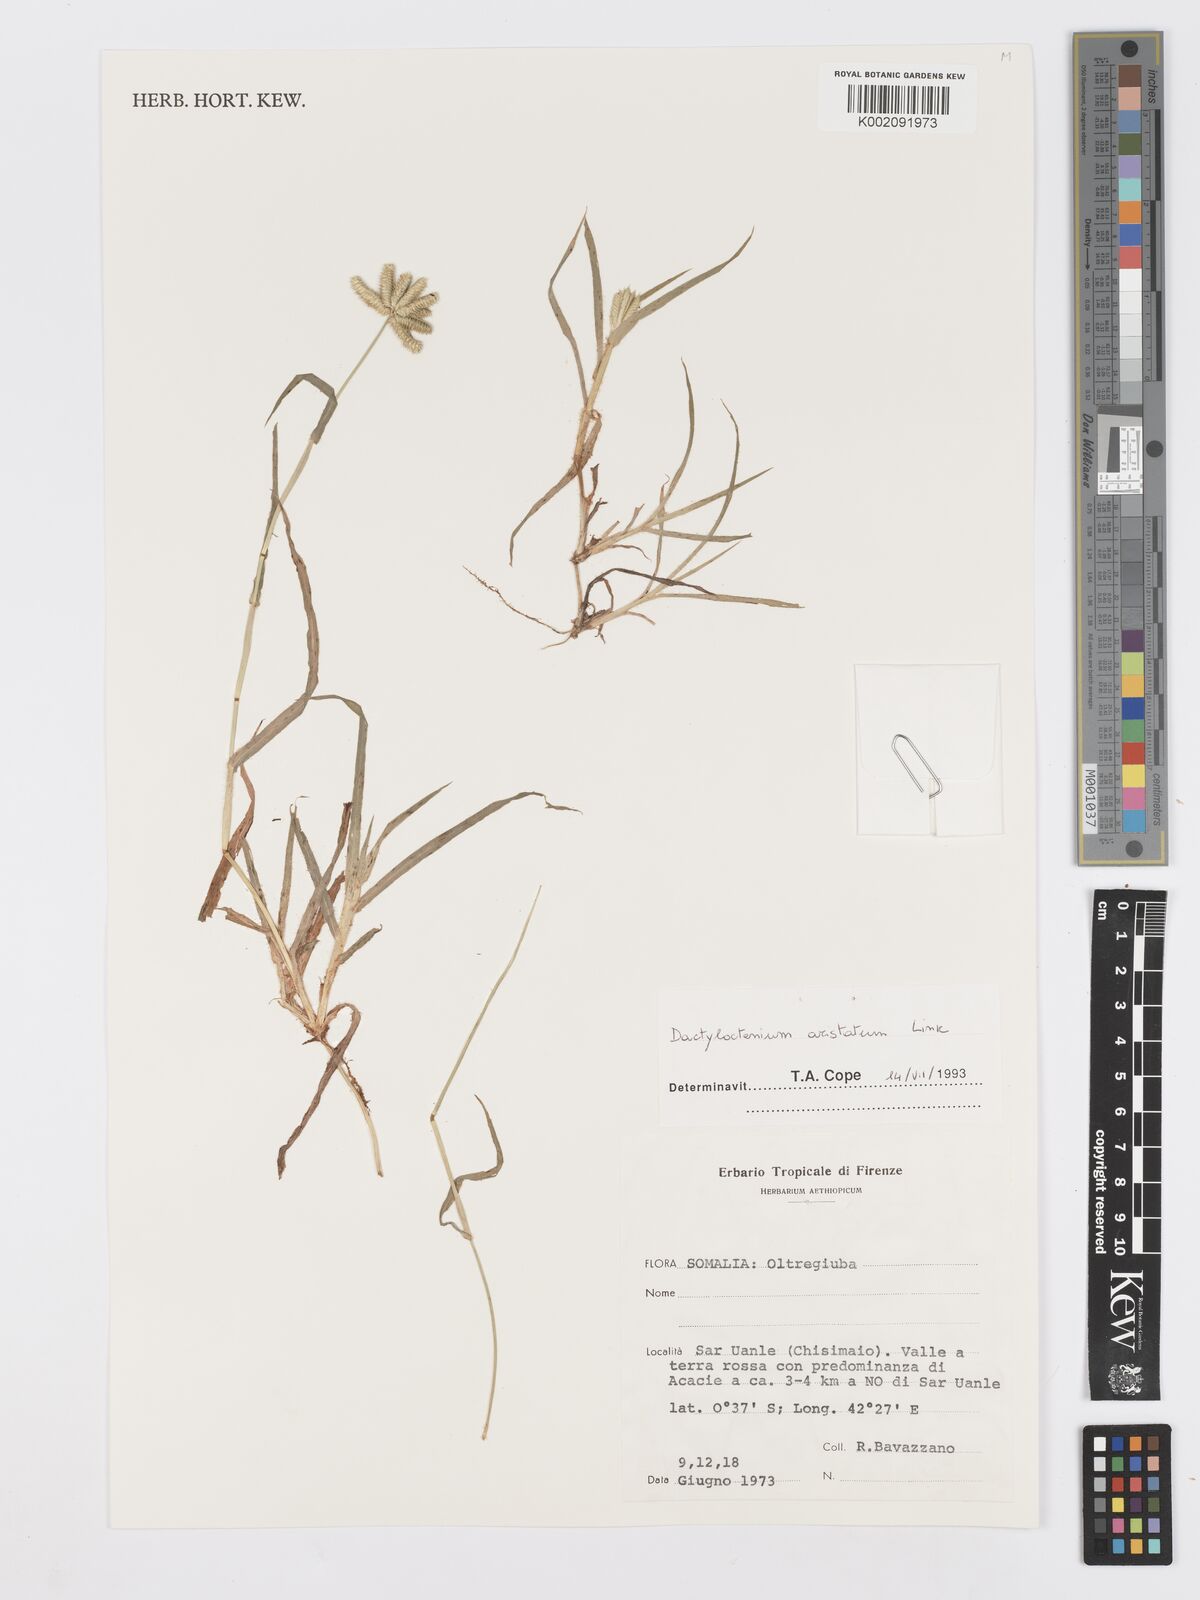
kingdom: Plantae
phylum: Tracheophyta
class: Liliopsida
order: Poales
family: Poaceae
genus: Dactyloctenium
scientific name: Dactyloctenium aristatum
